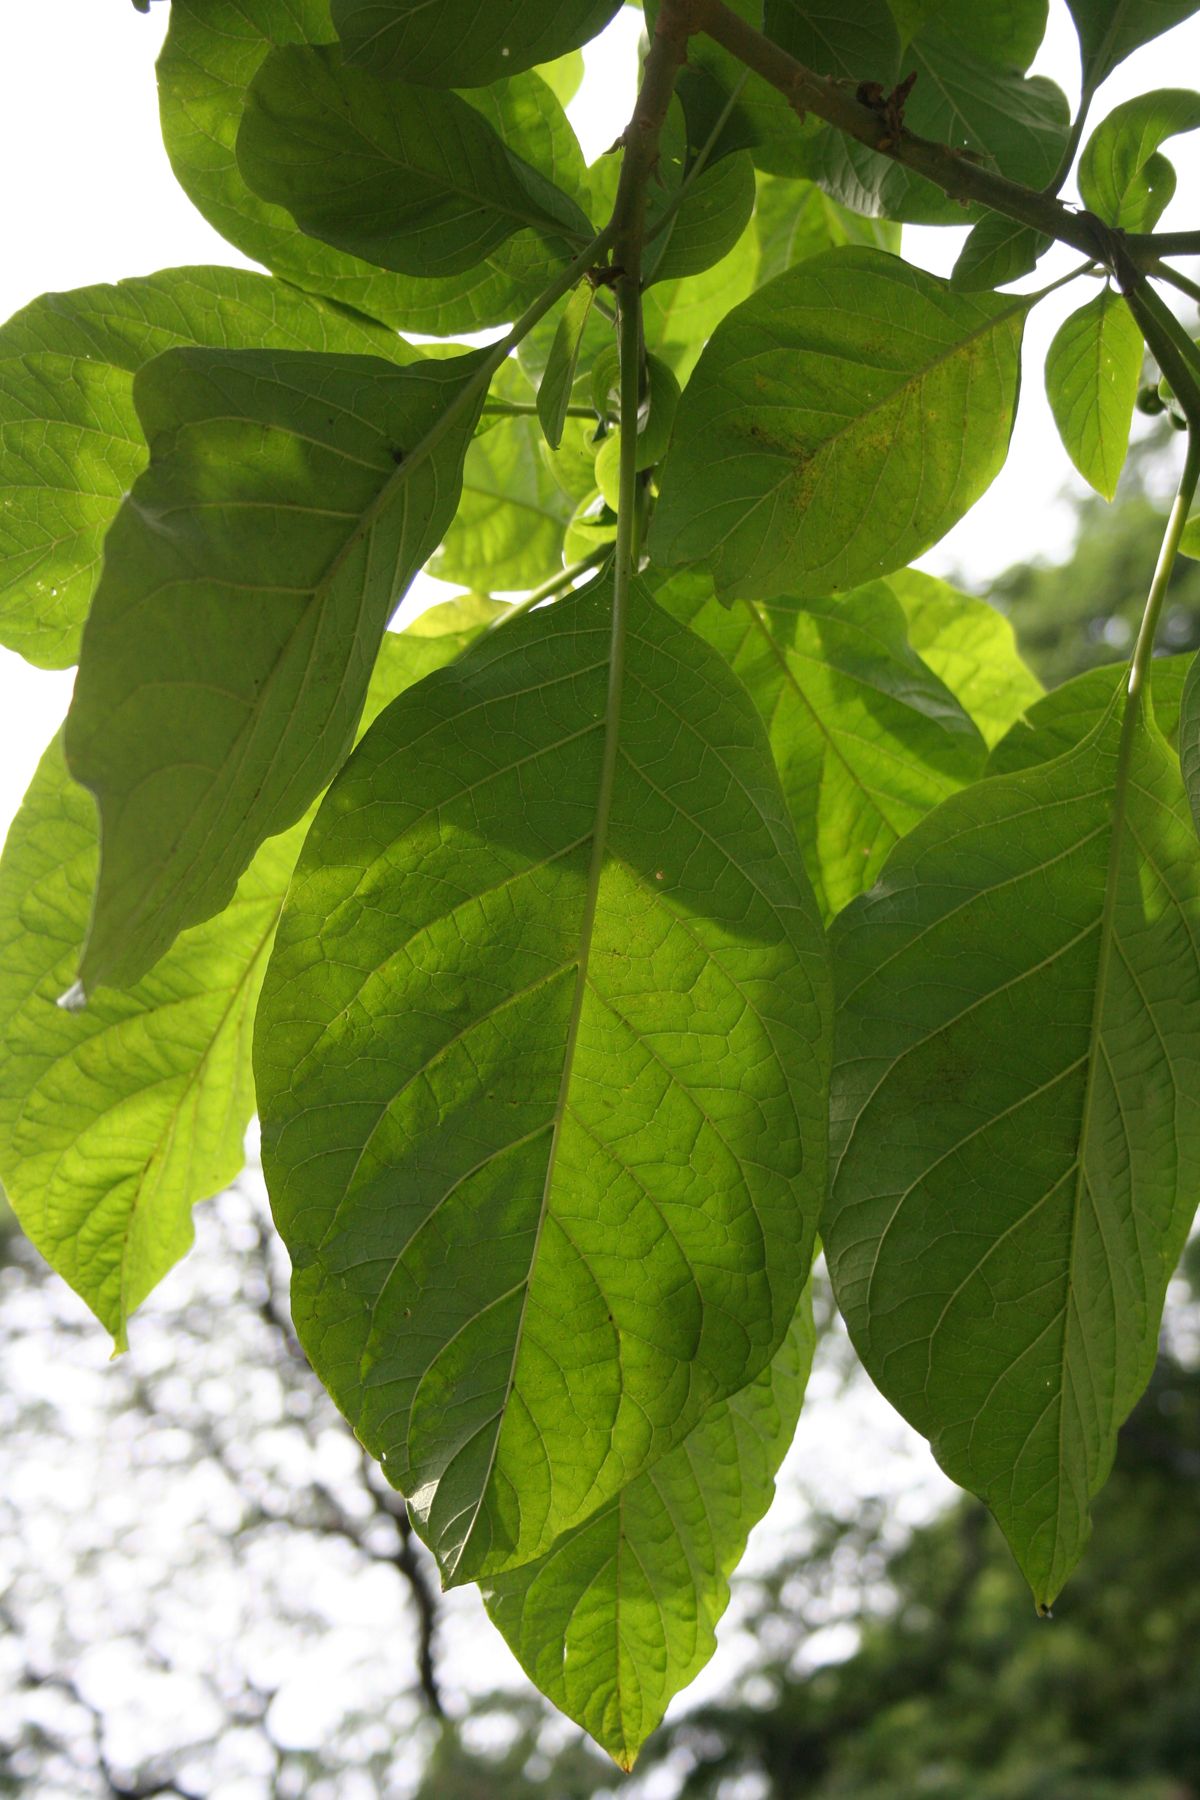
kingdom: Plantae
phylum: Tracheophyta
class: Magnoliopsida
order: Solanales
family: Solanaceae
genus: Solanum
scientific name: Solanum hazenii
